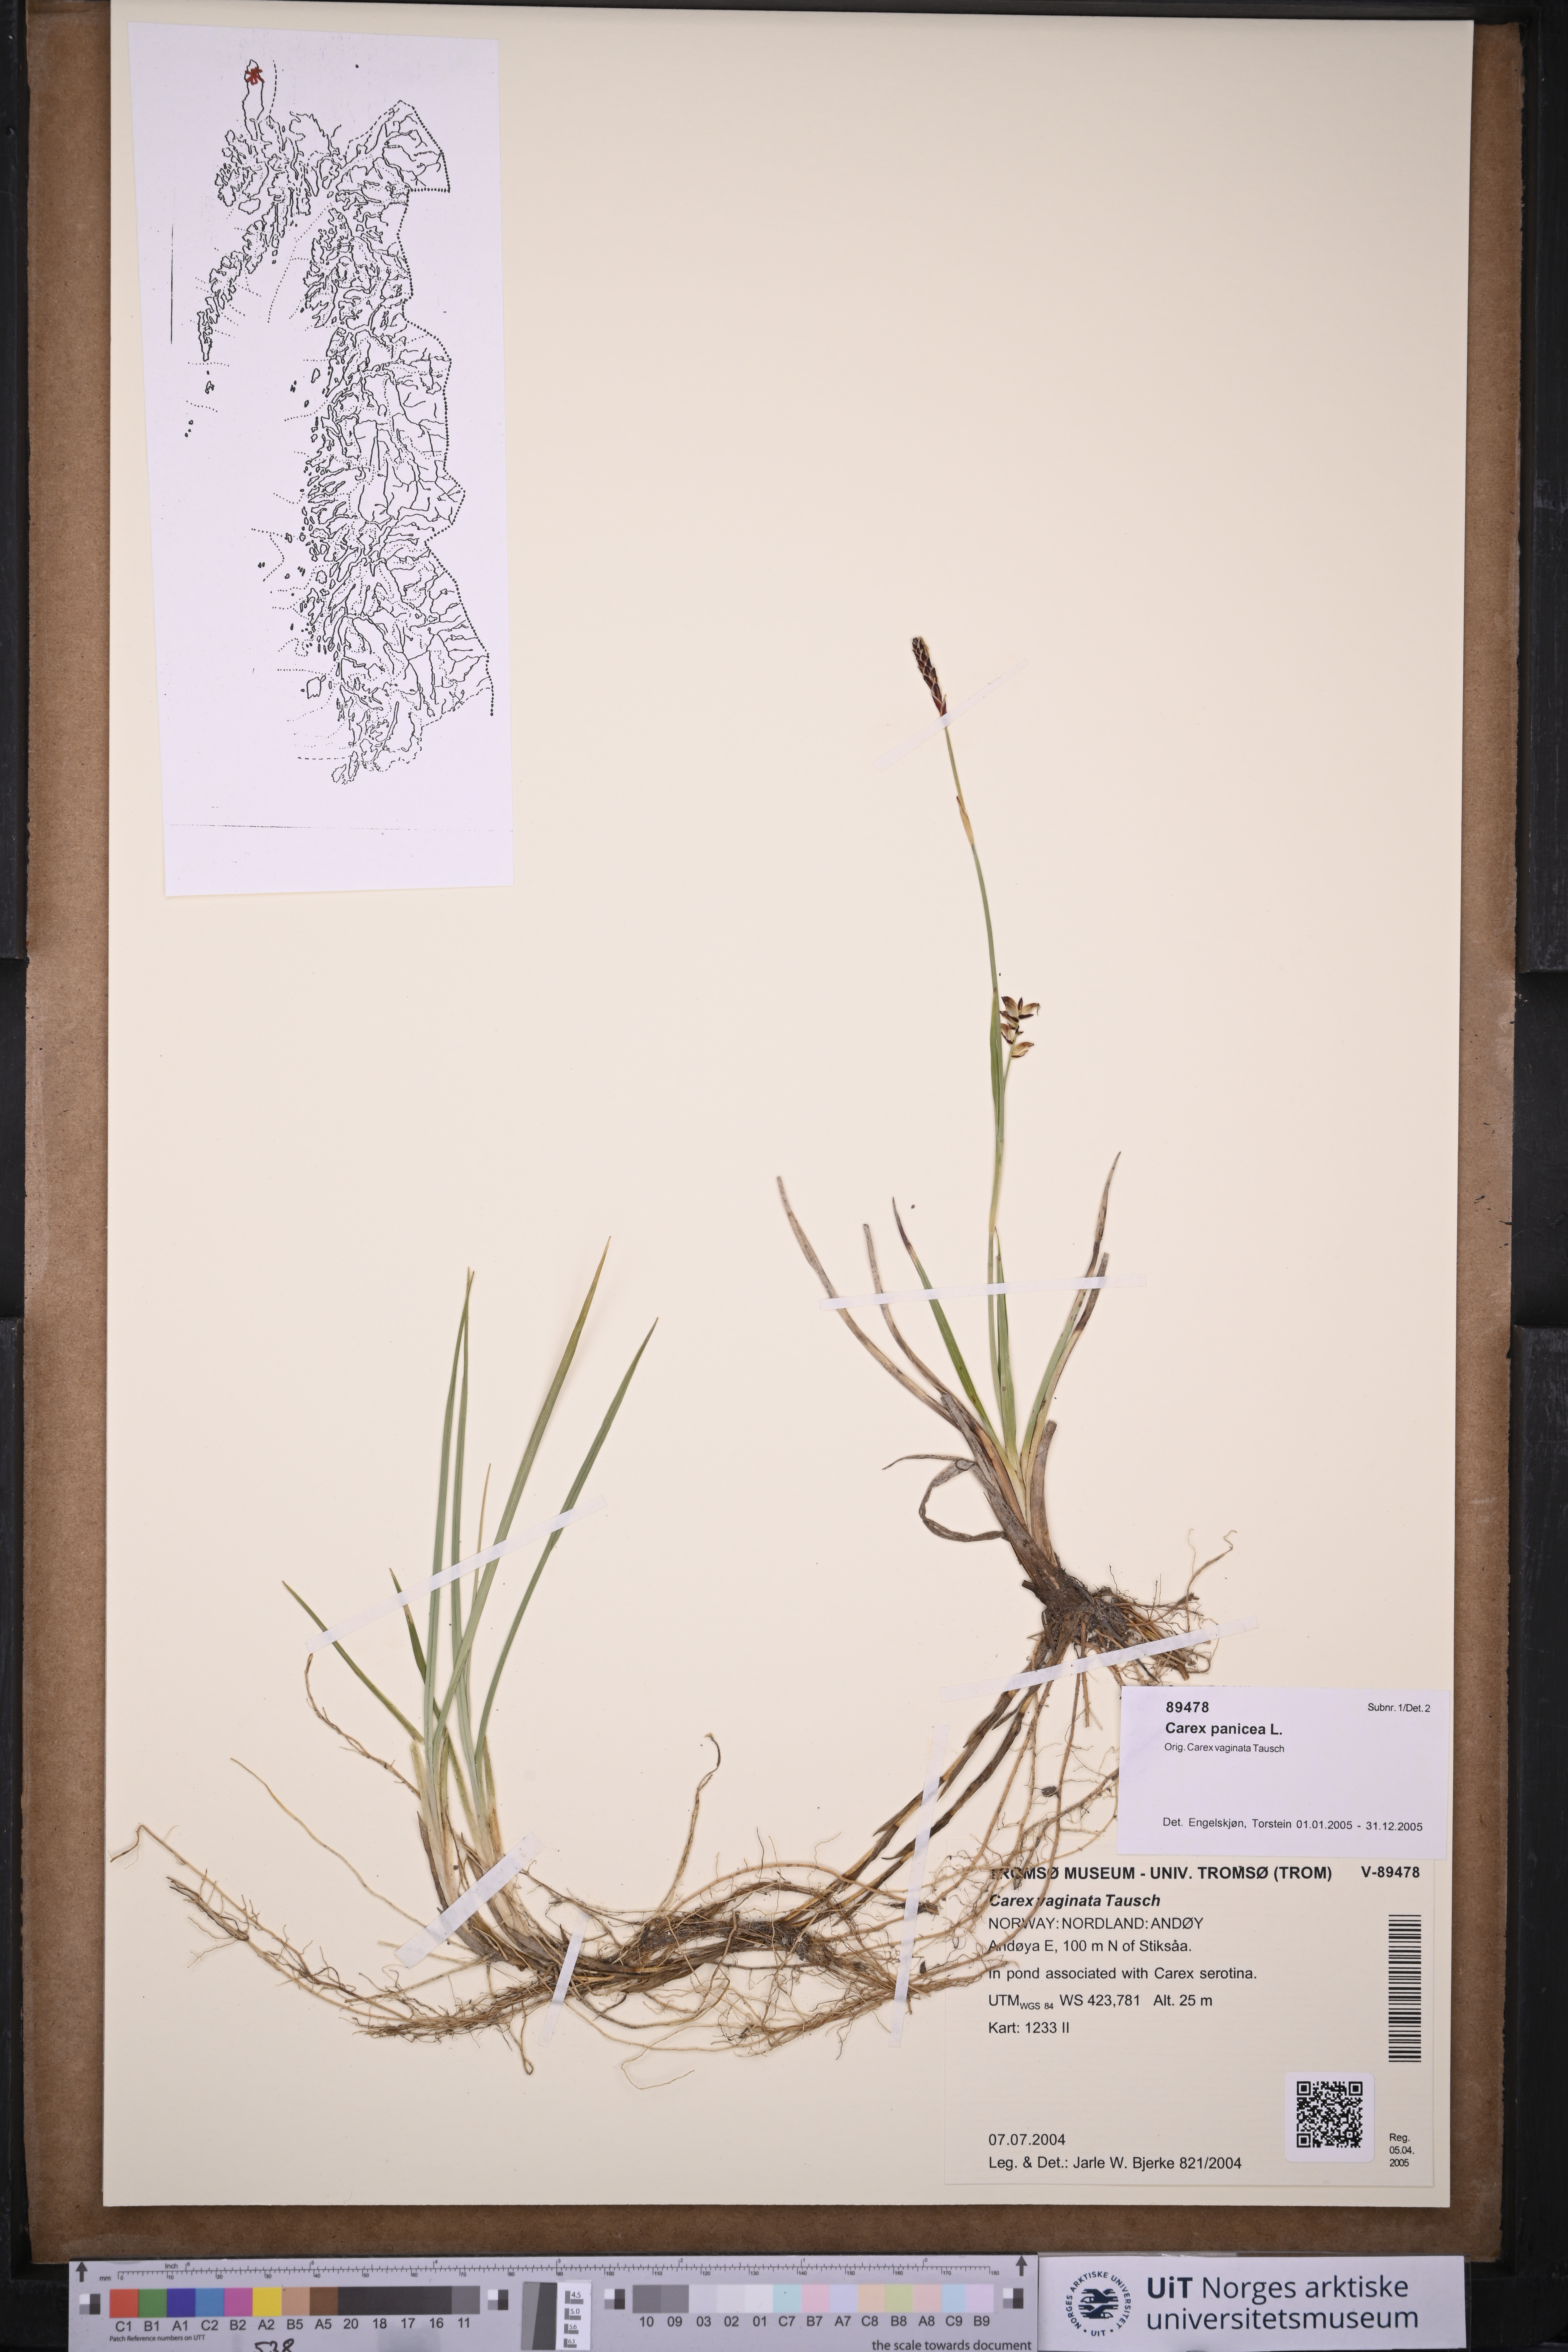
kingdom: Plantae
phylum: Tracheophyta
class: Liliopsida
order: Poales
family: Cyperaceae
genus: Carex
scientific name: Carex panicea
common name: Carnation sedge
